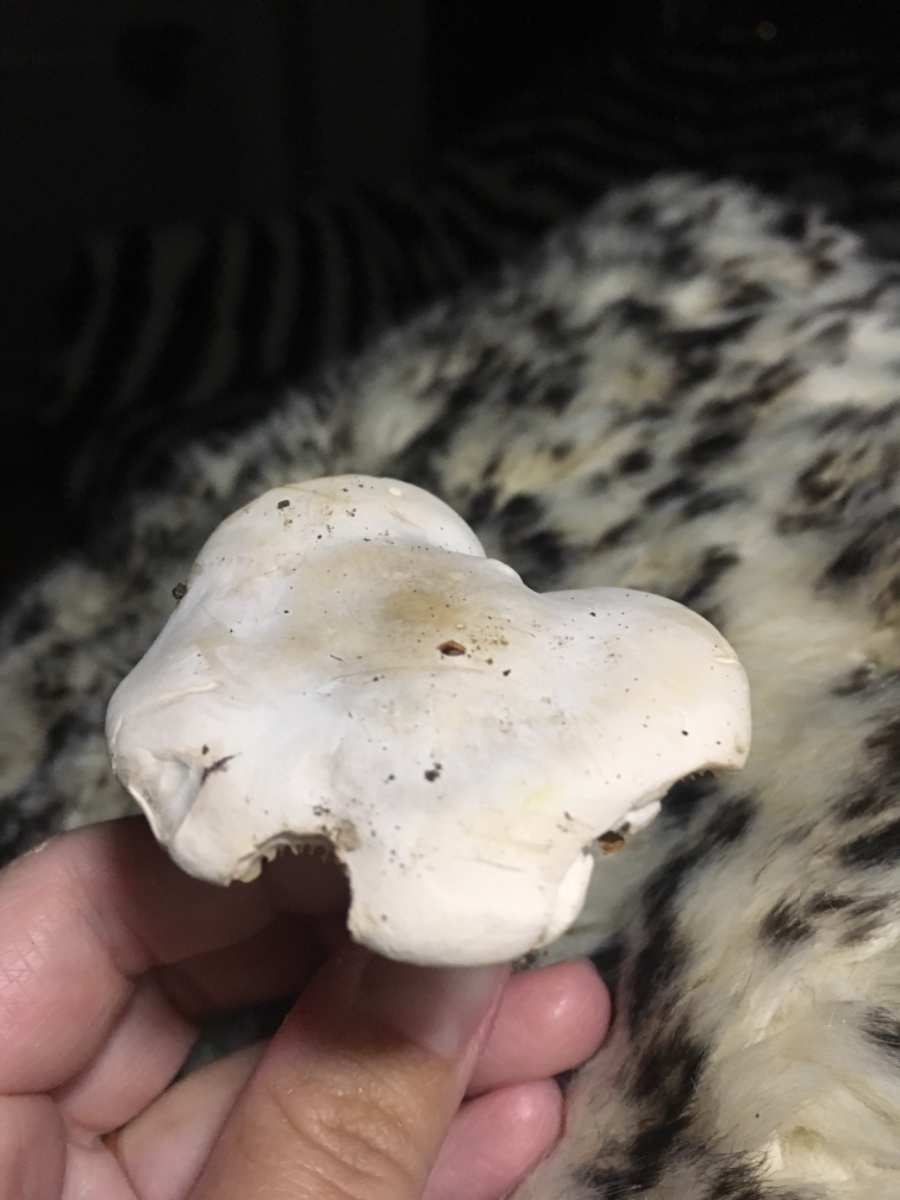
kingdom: Fungi
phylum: Basidiomycota
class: Agaricomycetes
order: Agaricales
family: Entolomataceae
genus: Clitopilus
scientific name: Clitopilus prunulus
